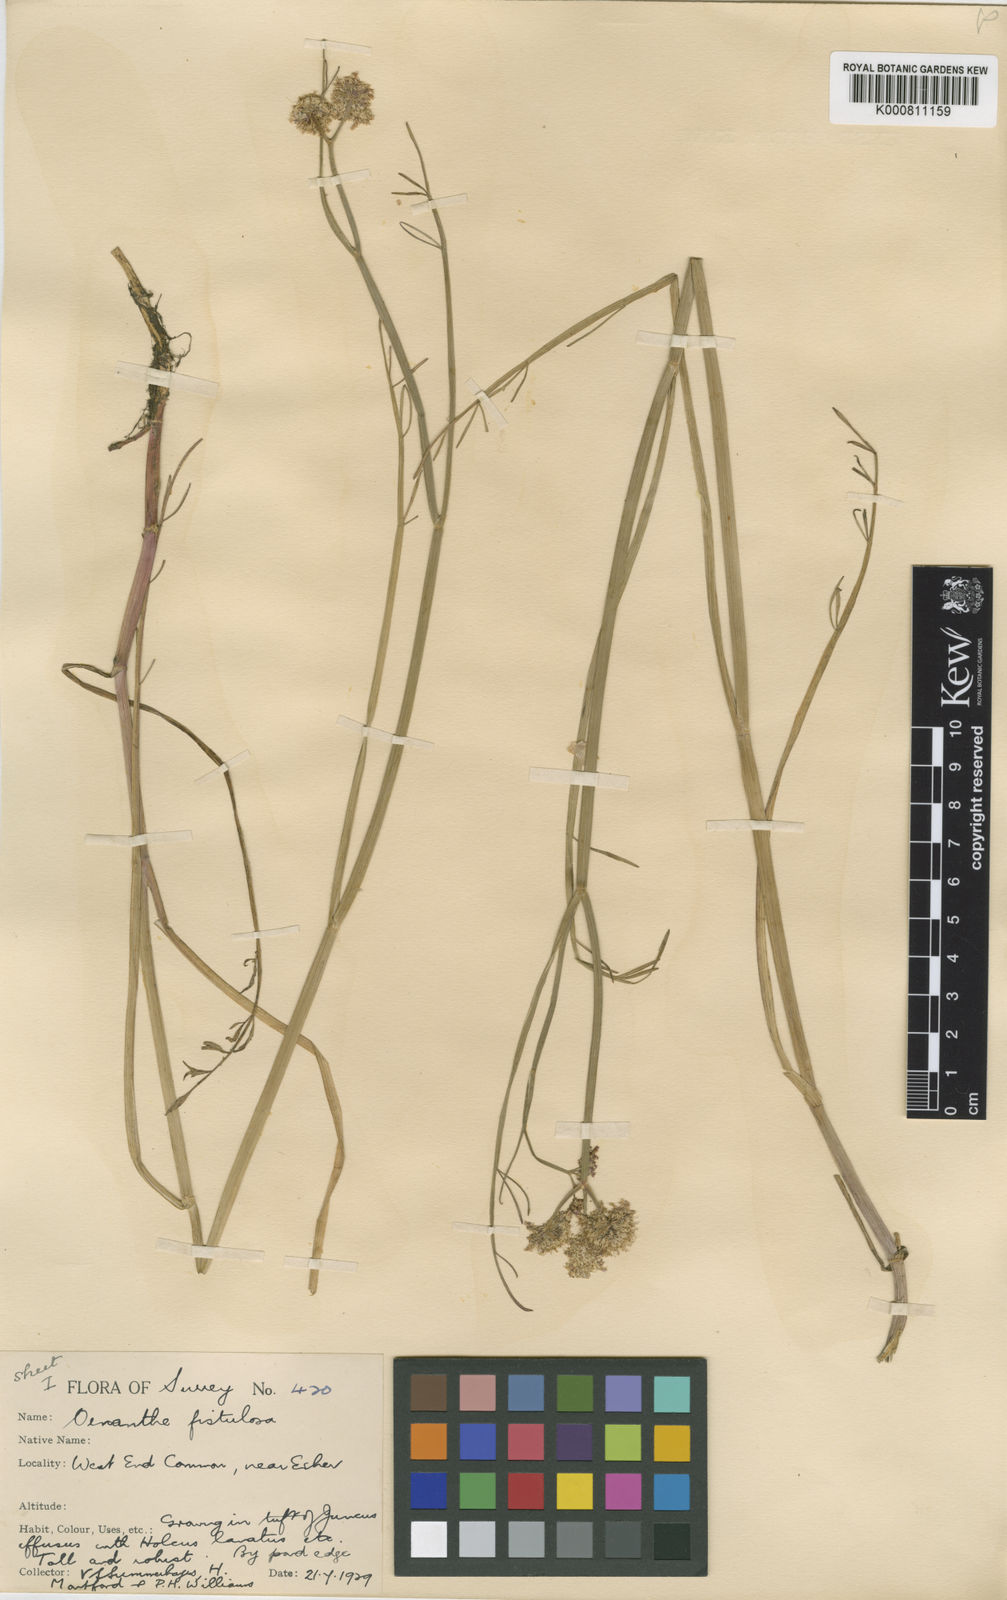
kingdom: Plantae
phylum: Tracheophyta
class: Magnoliopsida
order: Apiales
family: Apiaceae
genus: Oenanthe
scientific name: Oenanthe fistulosa
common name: Tubular water-dropwort
